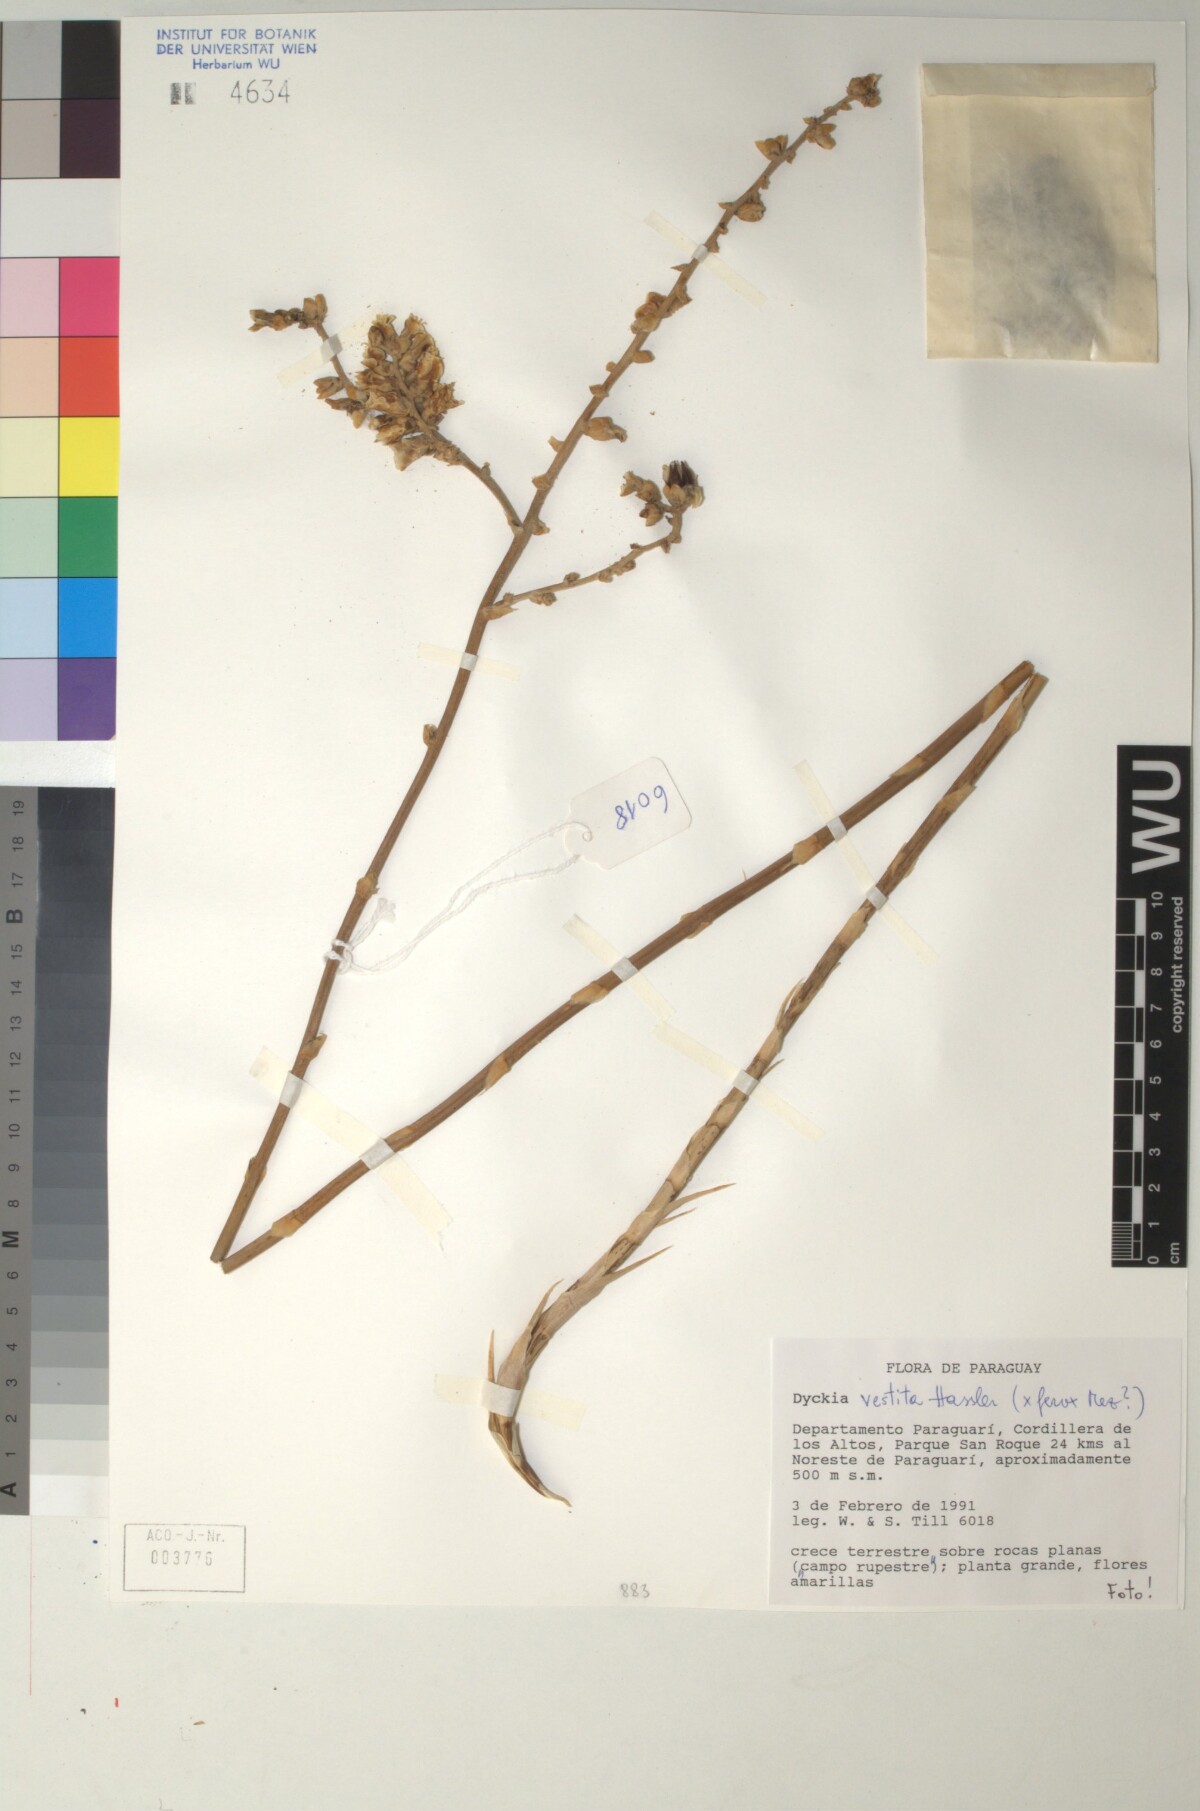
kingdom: Plantae
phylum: Tracheophyta
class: Liliopsida
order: Poales
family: Bromeliaceae
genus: Dyckia
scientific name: Dyckia vestita
